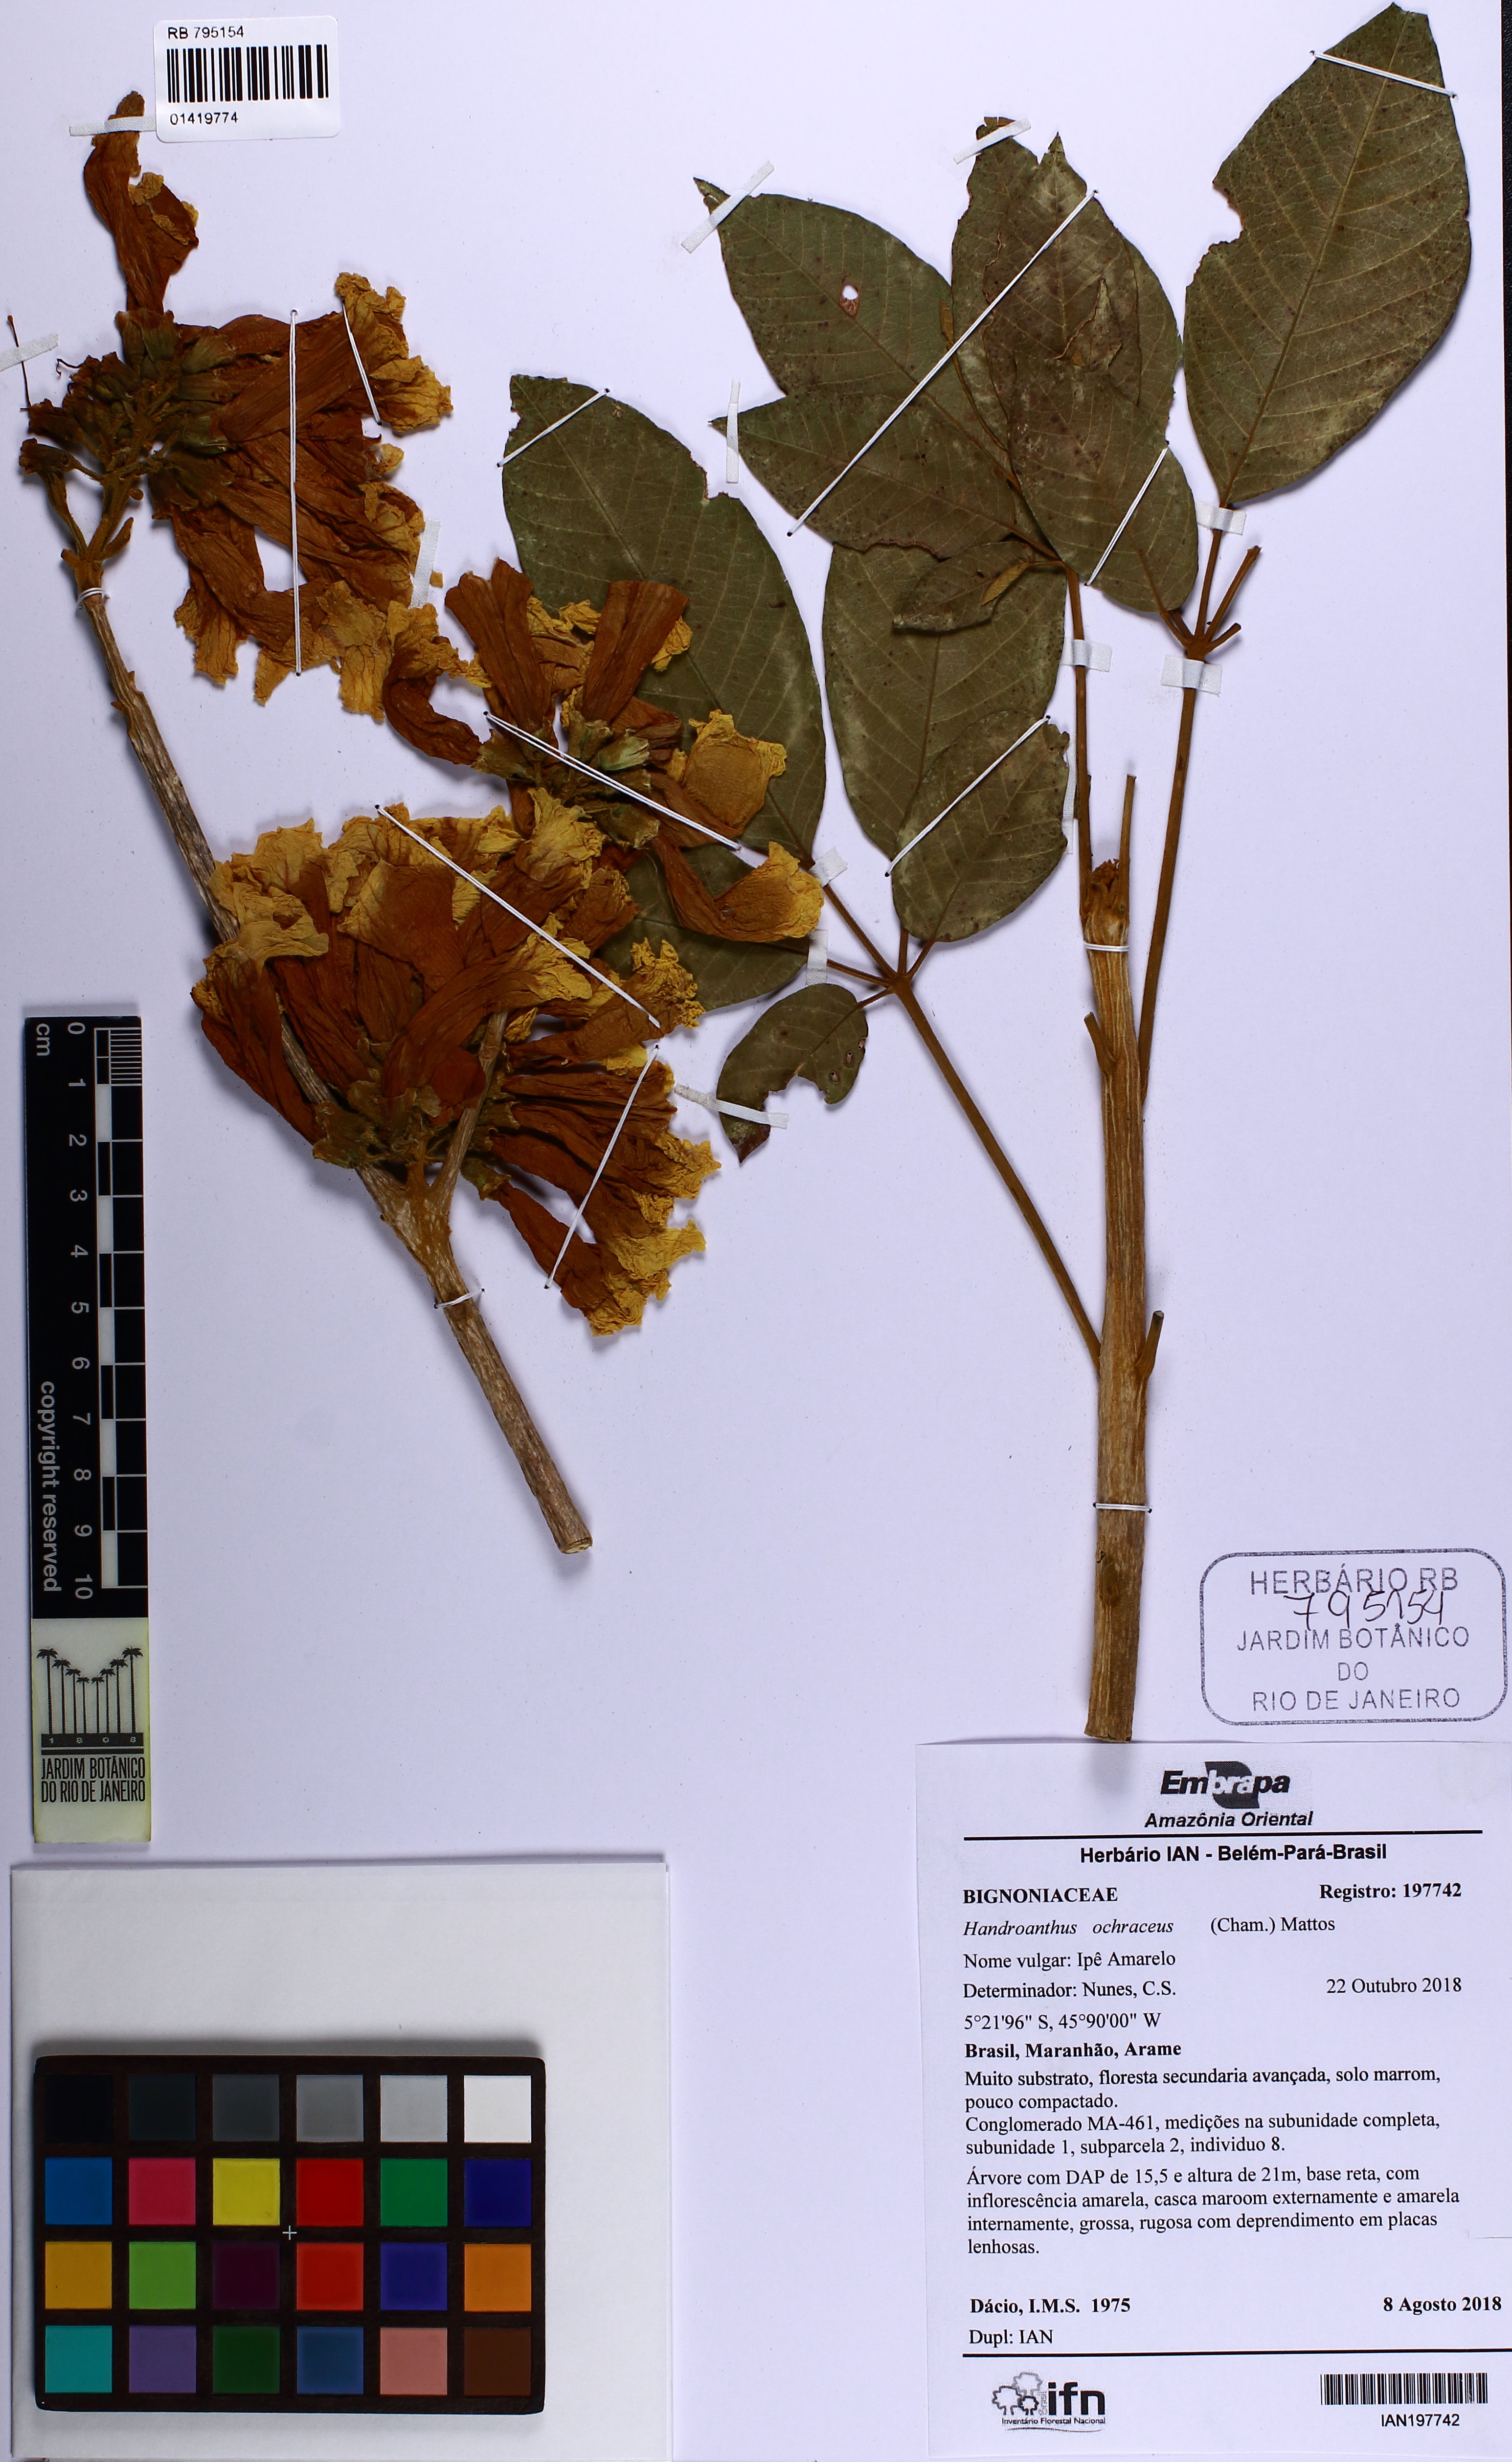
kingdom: Plantae
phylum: Tracheophyta
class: Magnoliopsida
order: Lamiales
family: Bignoniaceae
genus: Handroanthus
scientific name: Handroanthus ochraceus
